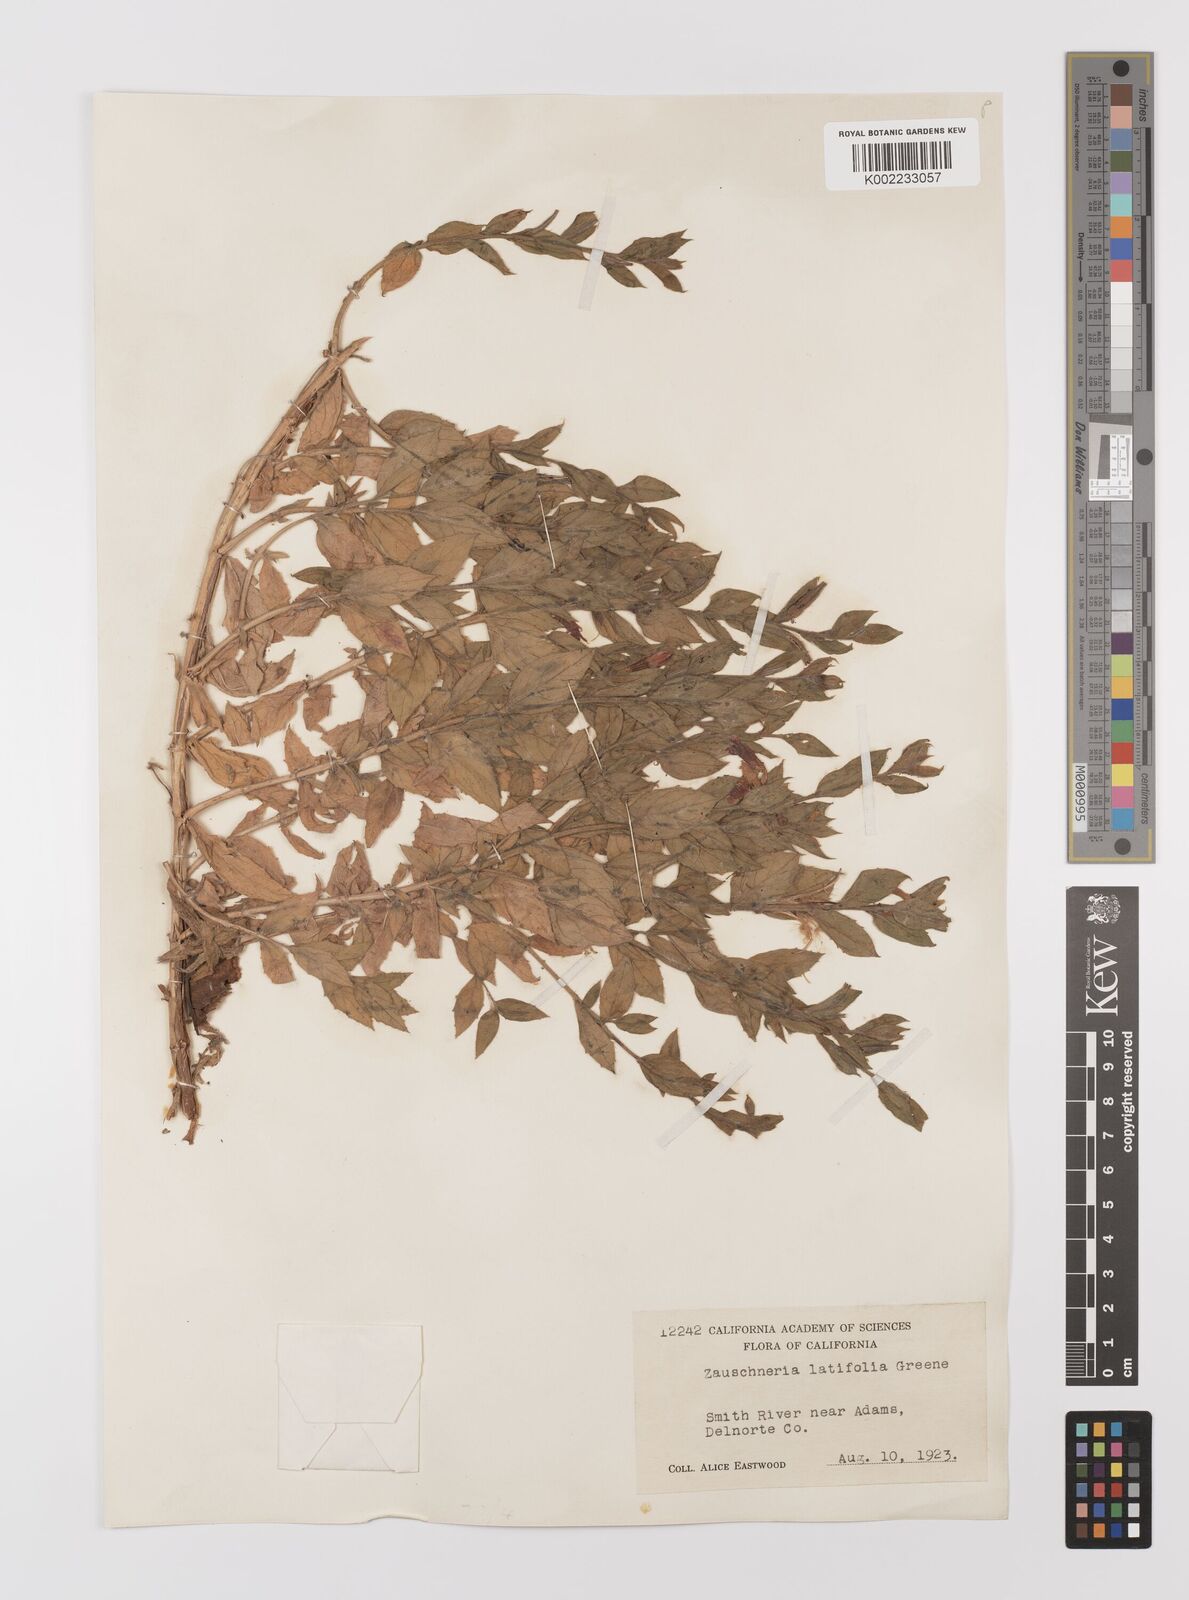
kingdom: Plantae
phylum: Tracheophyta
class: Magnoliopsida
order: Myrtales
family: Onagraceae
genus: Epilobium
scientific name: Epilobium
